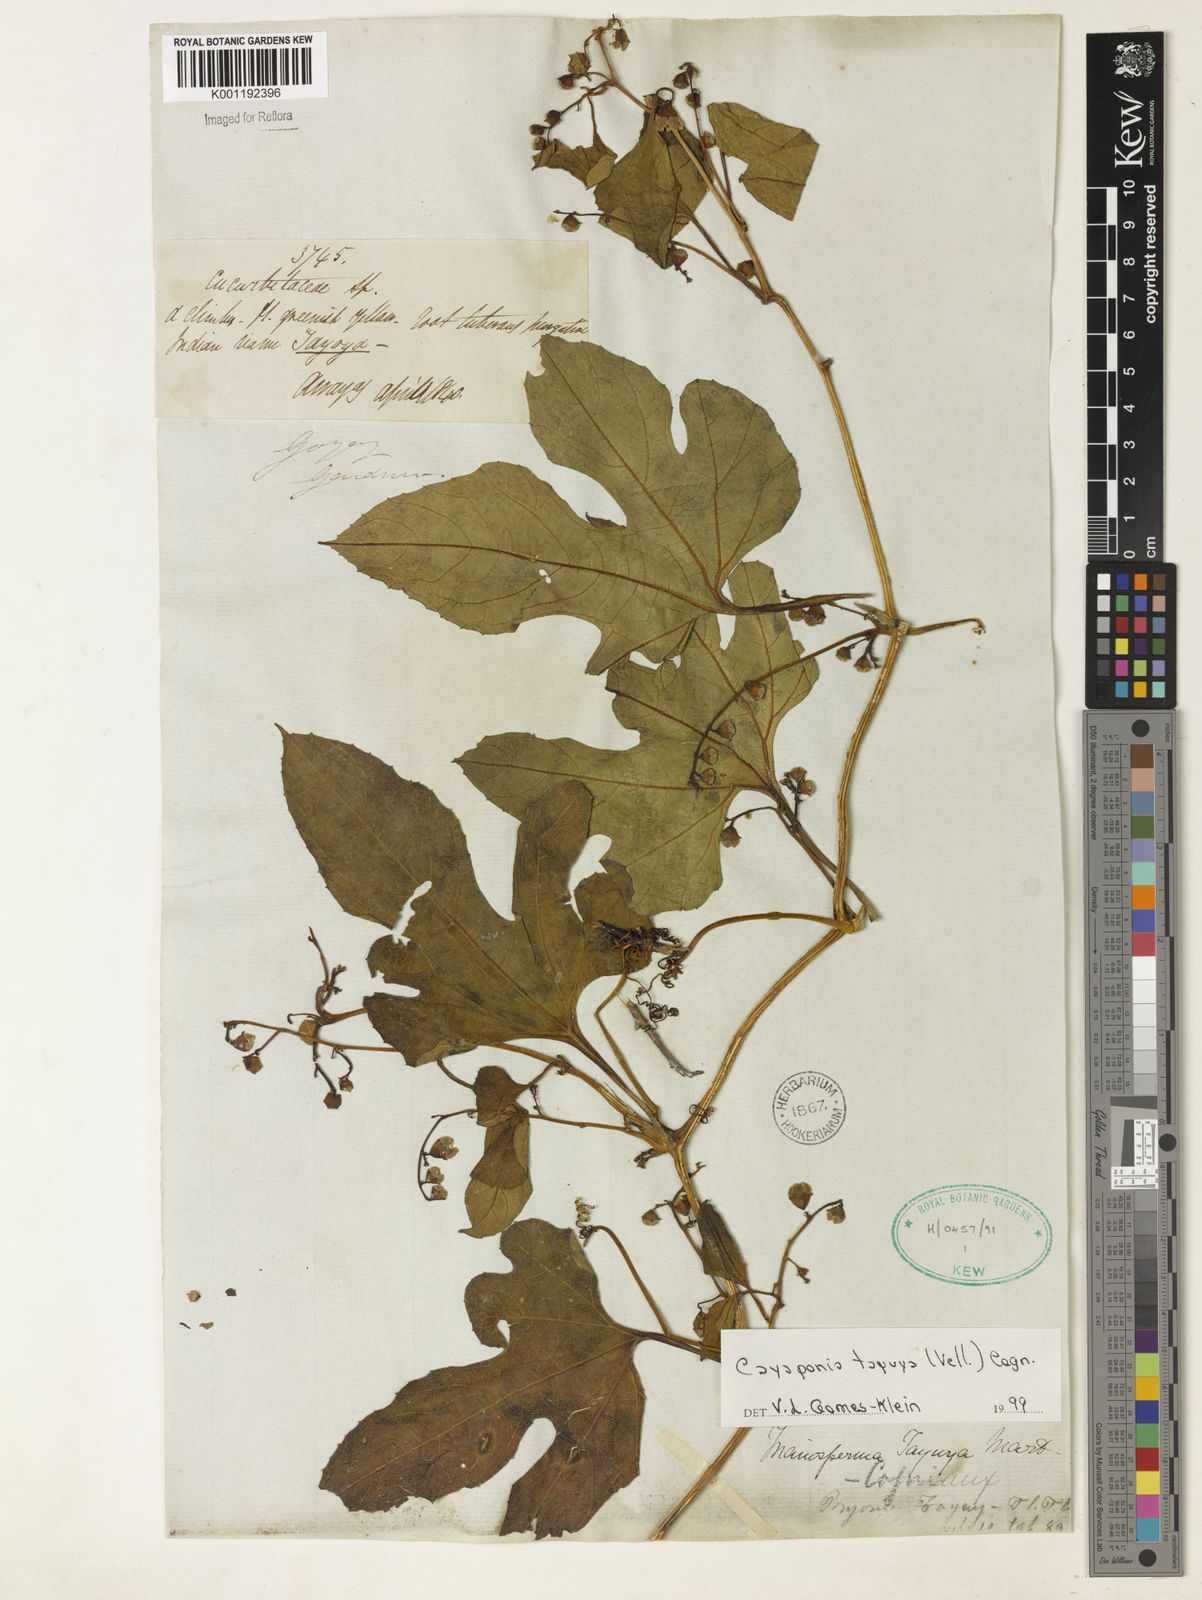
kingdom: Plantae
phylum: Tracheophyta
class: Magnoliopsida
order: Cucurbitales
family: Cucurbitaceae
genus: Cayaponia
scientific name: Cayaponia tayuya
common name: Tayuya
